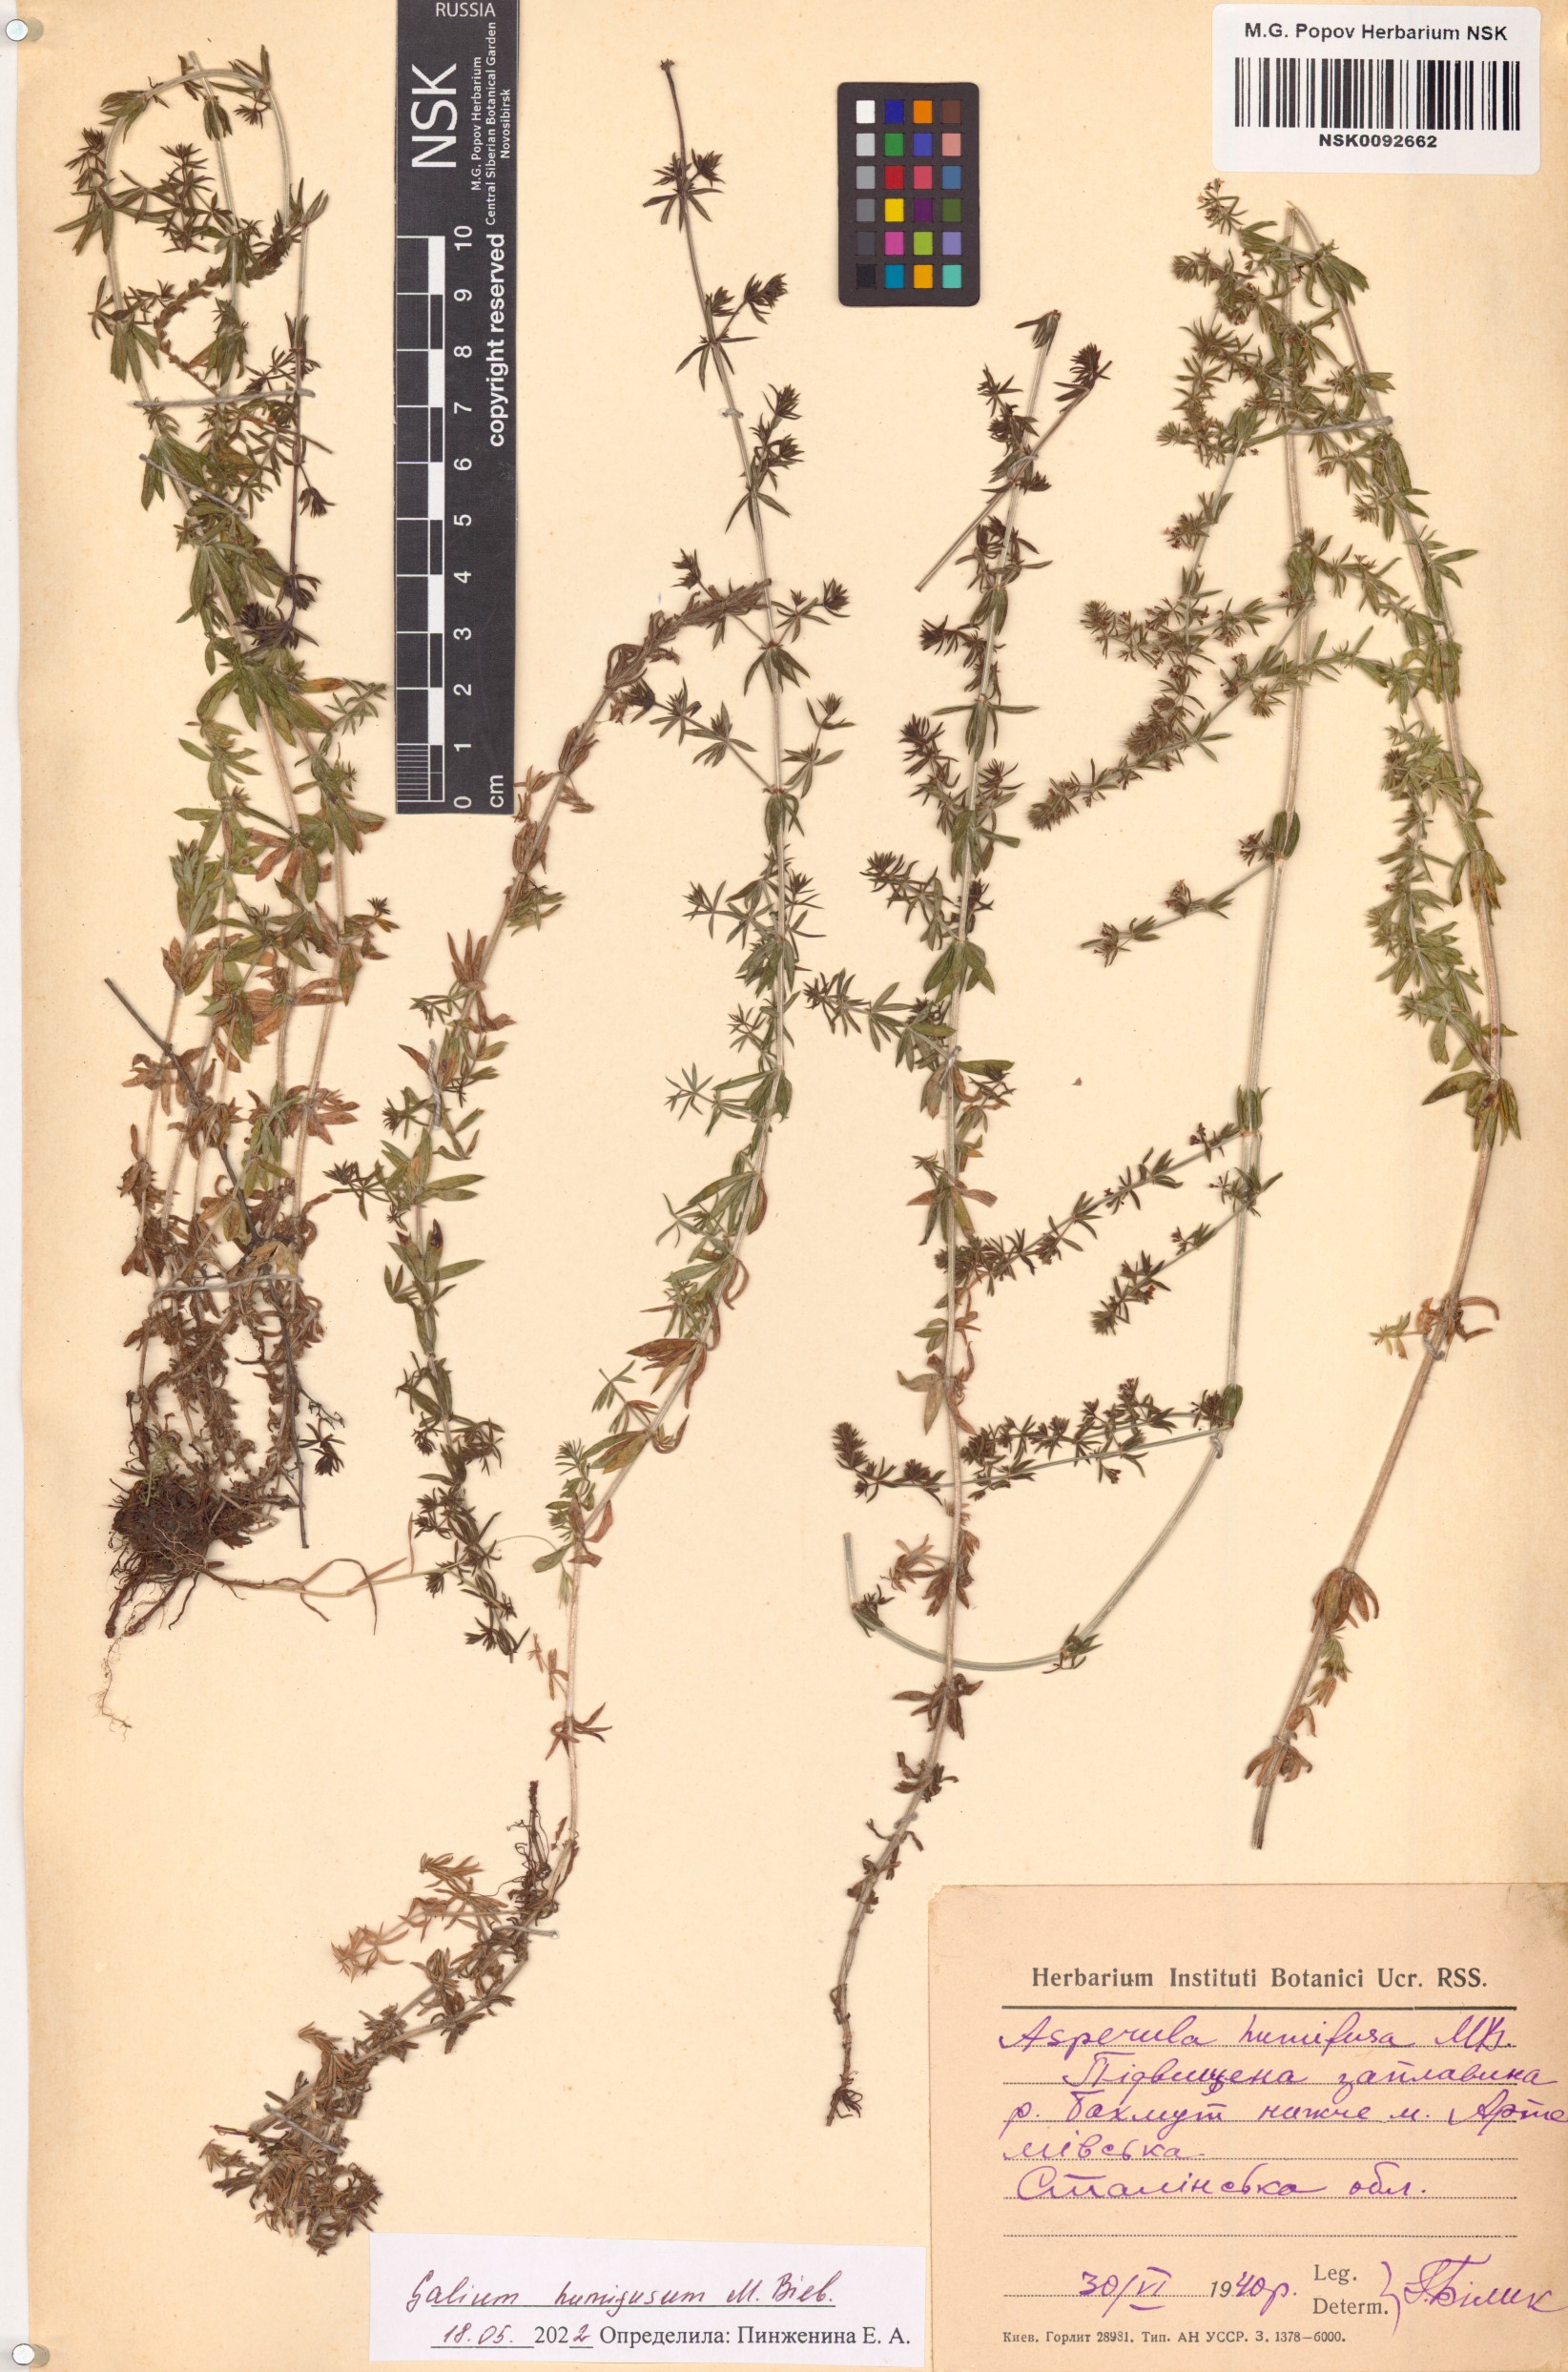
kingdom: Plantae
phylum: Tracheophyta
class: Magnoliopsida
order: Gentianales
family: Rubiaceae
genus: Galium
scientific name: Galium humifusum
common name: Spreading bedstraw
